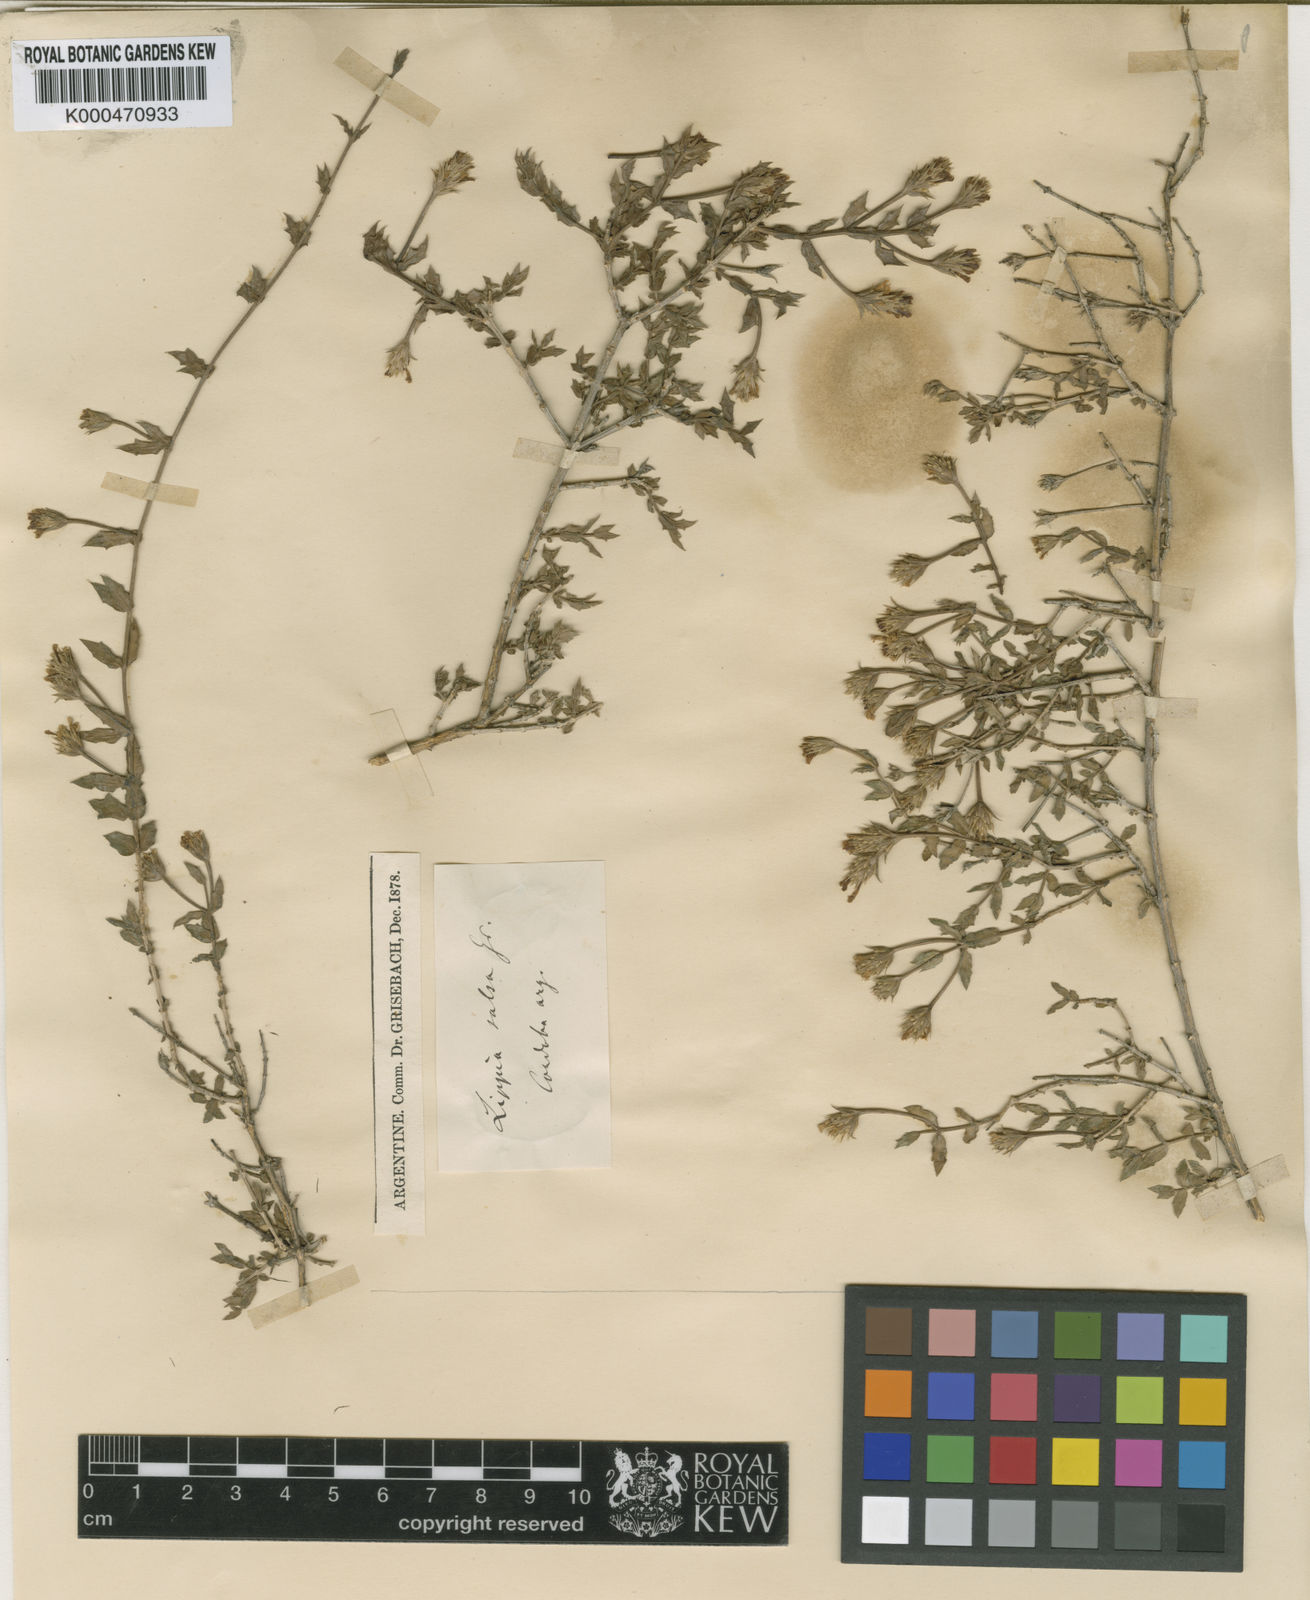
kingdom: Plantae
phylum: Tracheophyta
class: Magnoliopsida
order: Lamiales
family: Verbenaceae
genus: Lippia
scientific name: Lippia salsa
